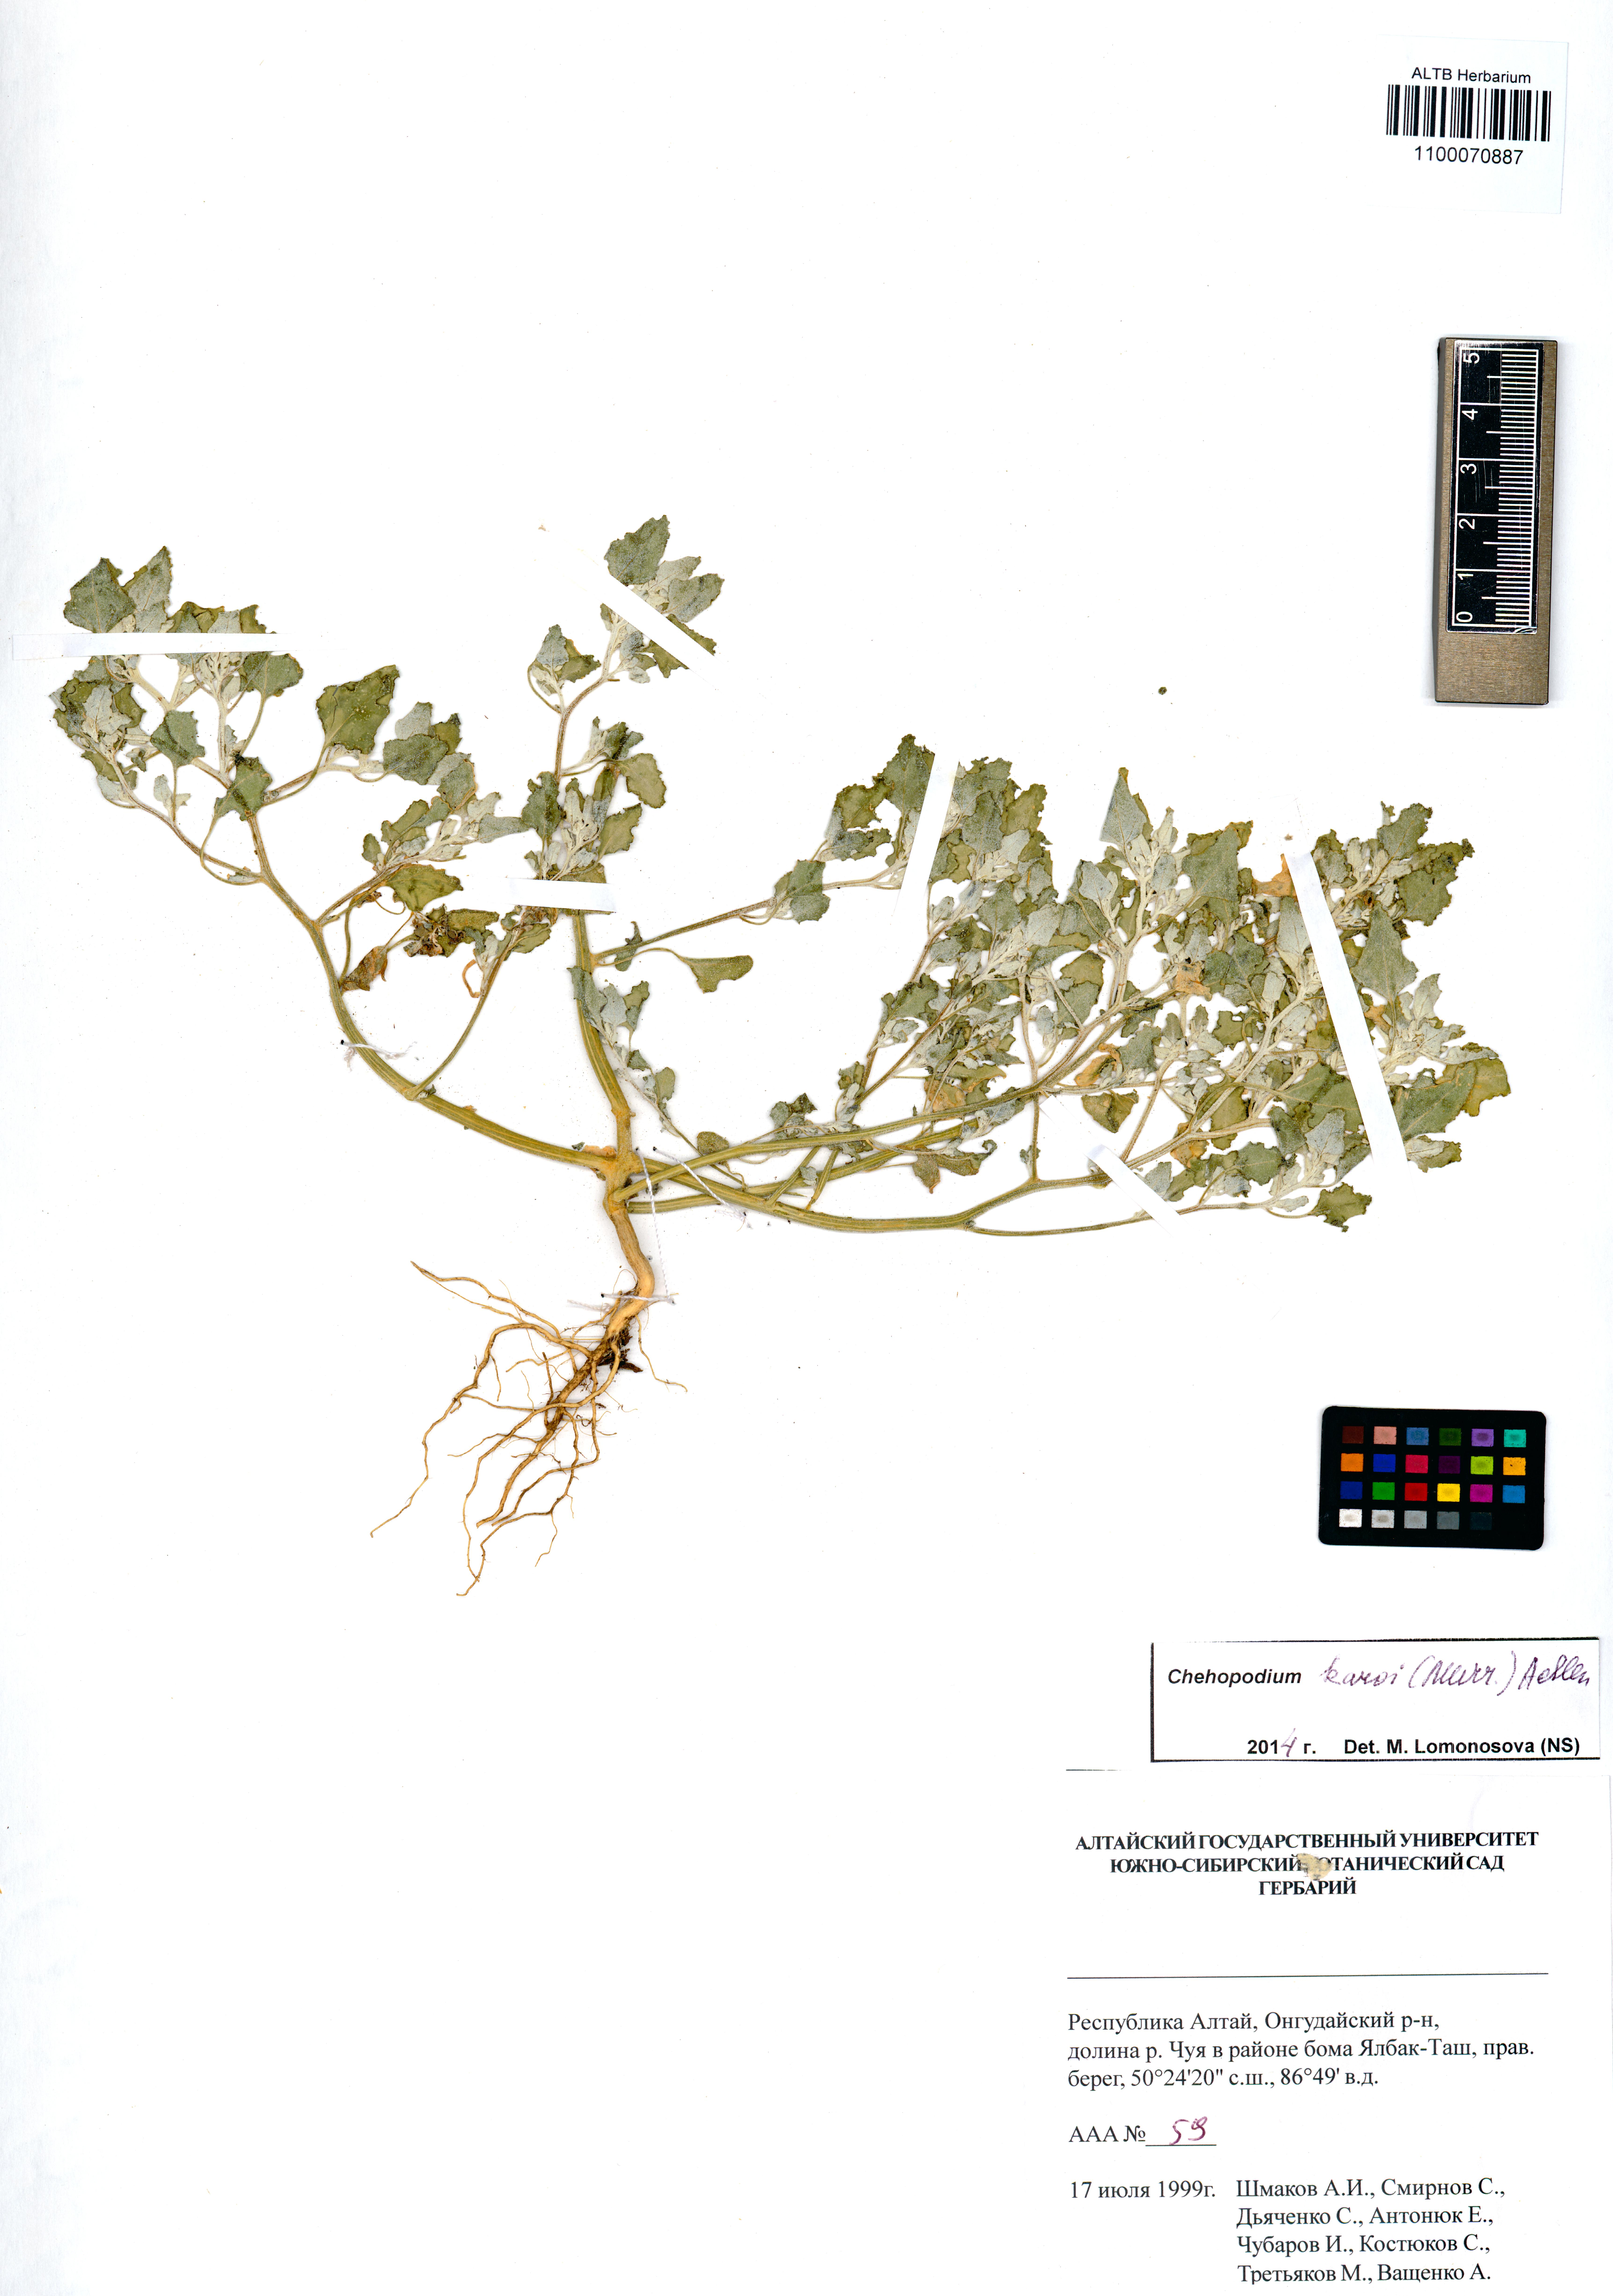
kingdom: Plantae
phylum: Tracheophyta
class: Magnoliopsida
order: Caryophyllales
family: Amaranthaceae
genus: Chenopodium
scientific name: Chenopodium karoi
